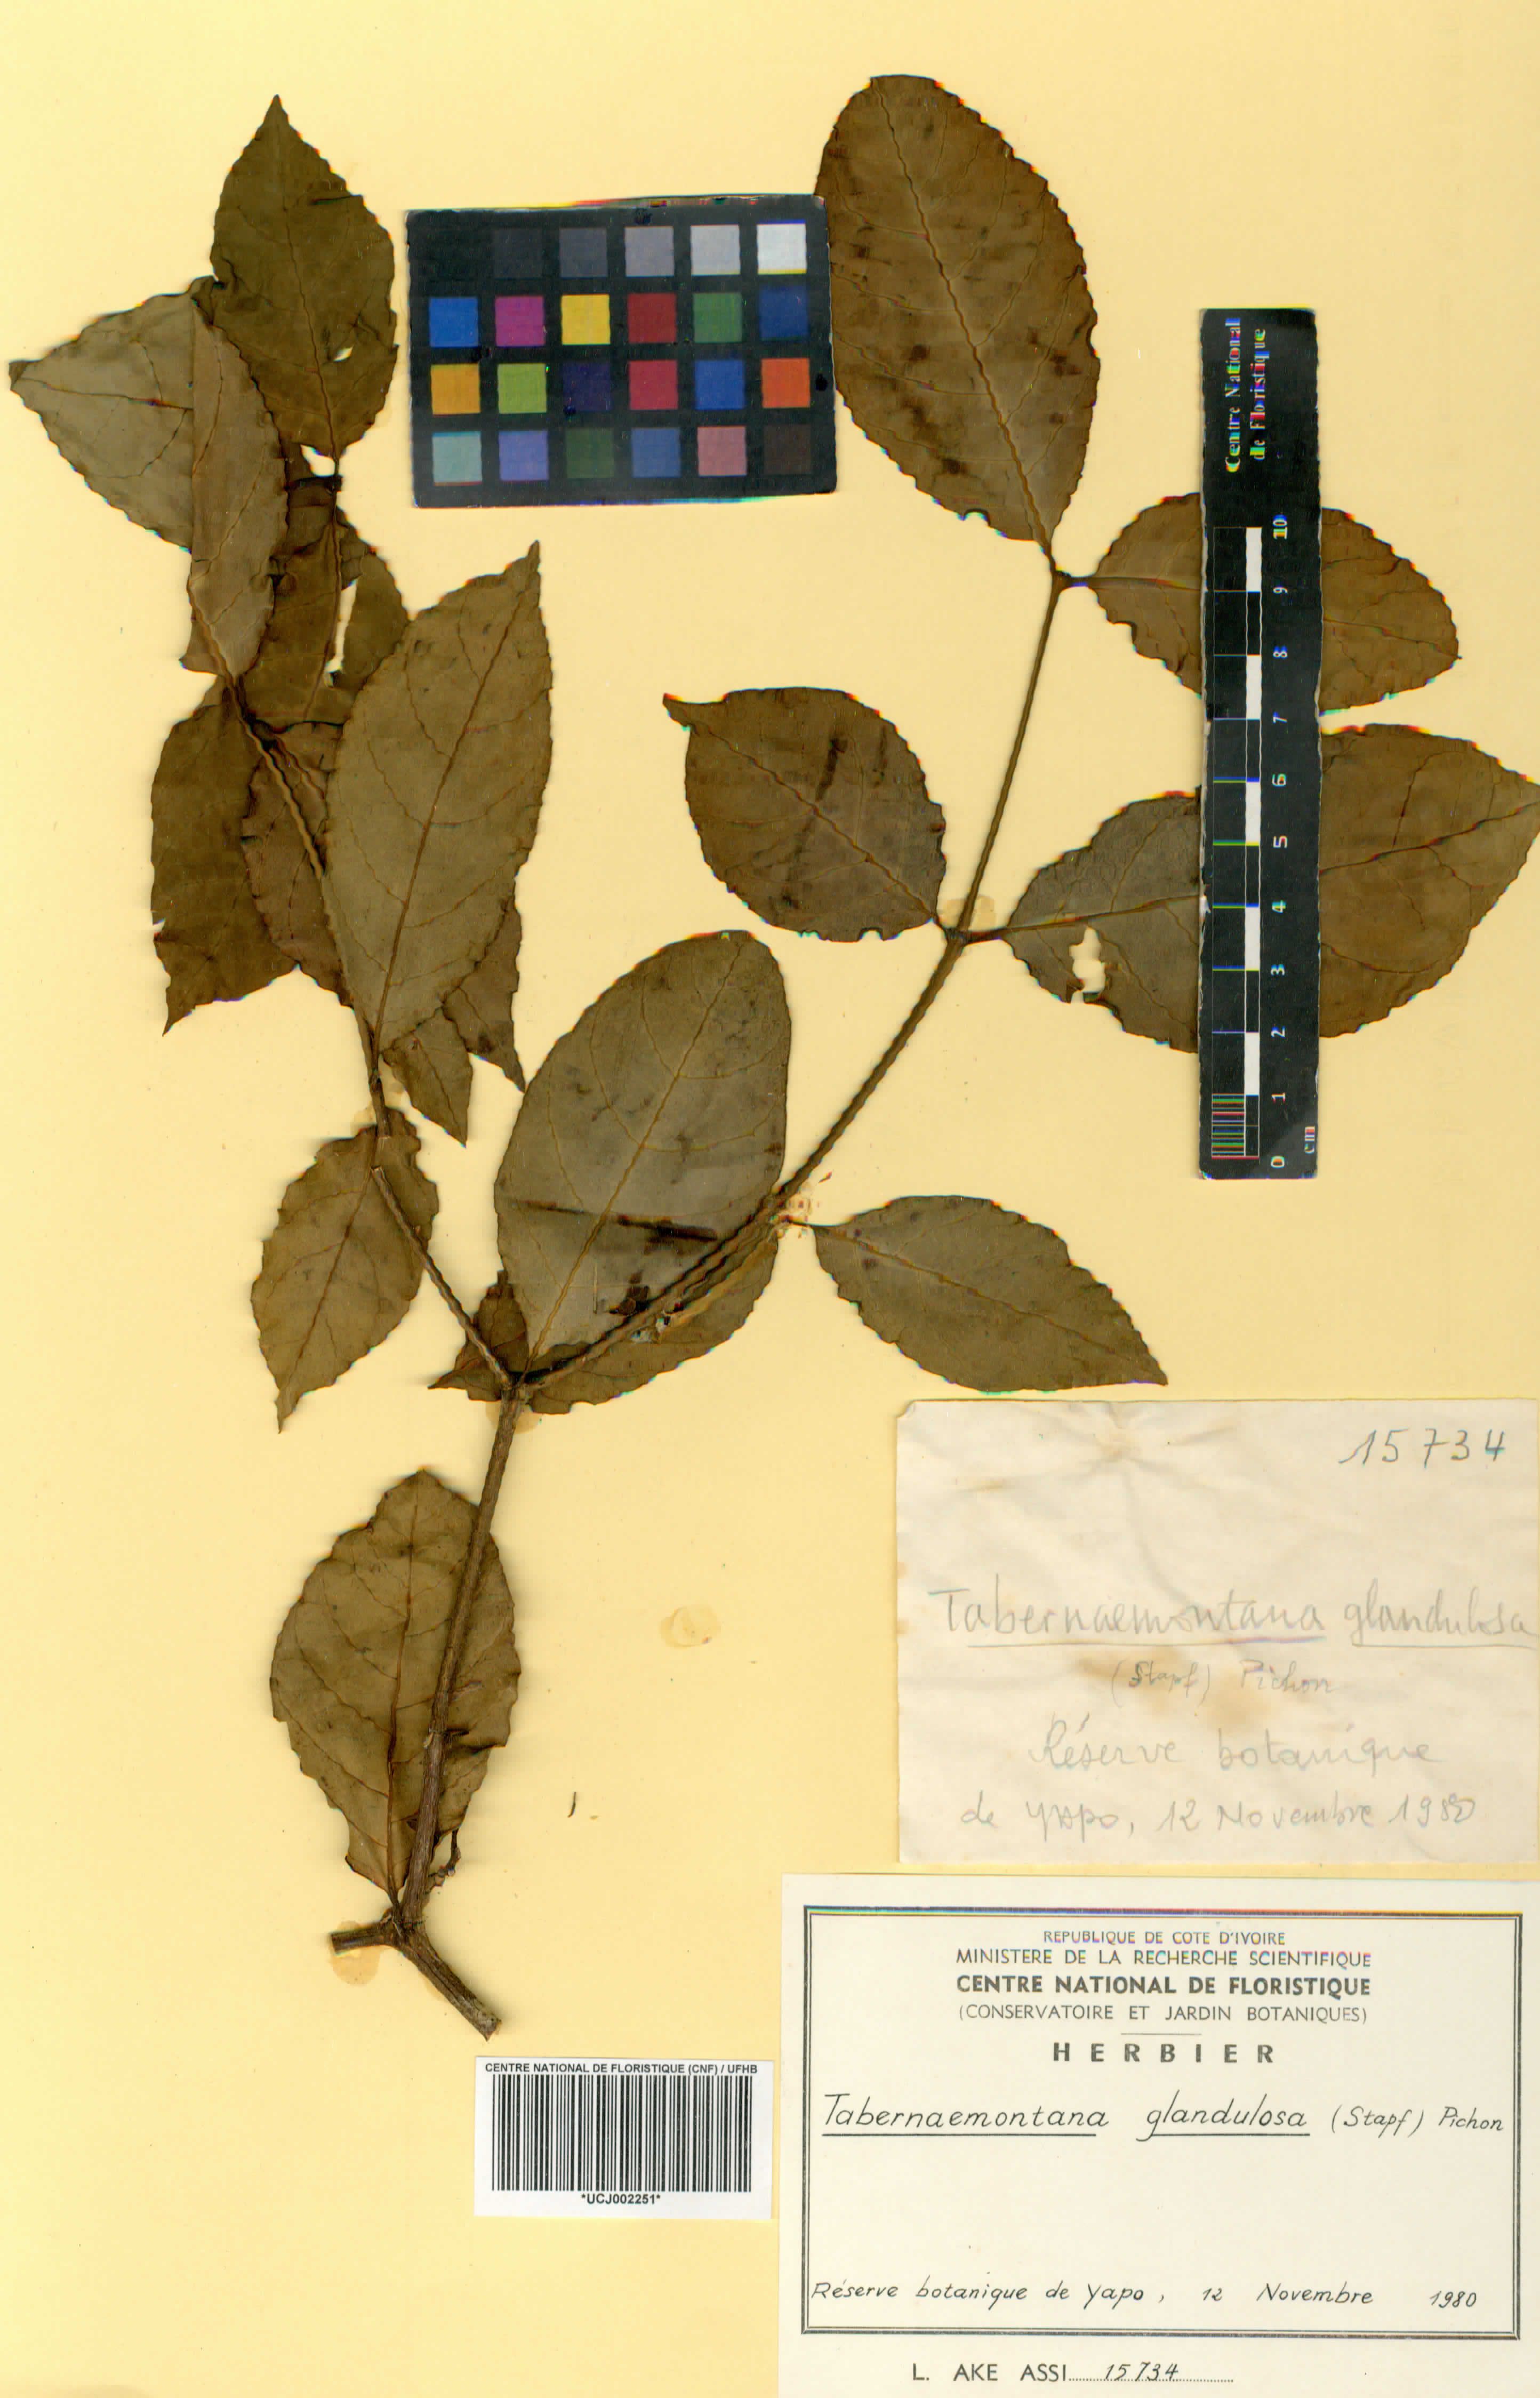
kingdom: Plantae
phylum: Tracheophyta
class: Magnoliopsida
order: Gentianales
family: Apocynaceae
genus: Tabernaemontana
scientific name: Tabernaemontana glandulosa
